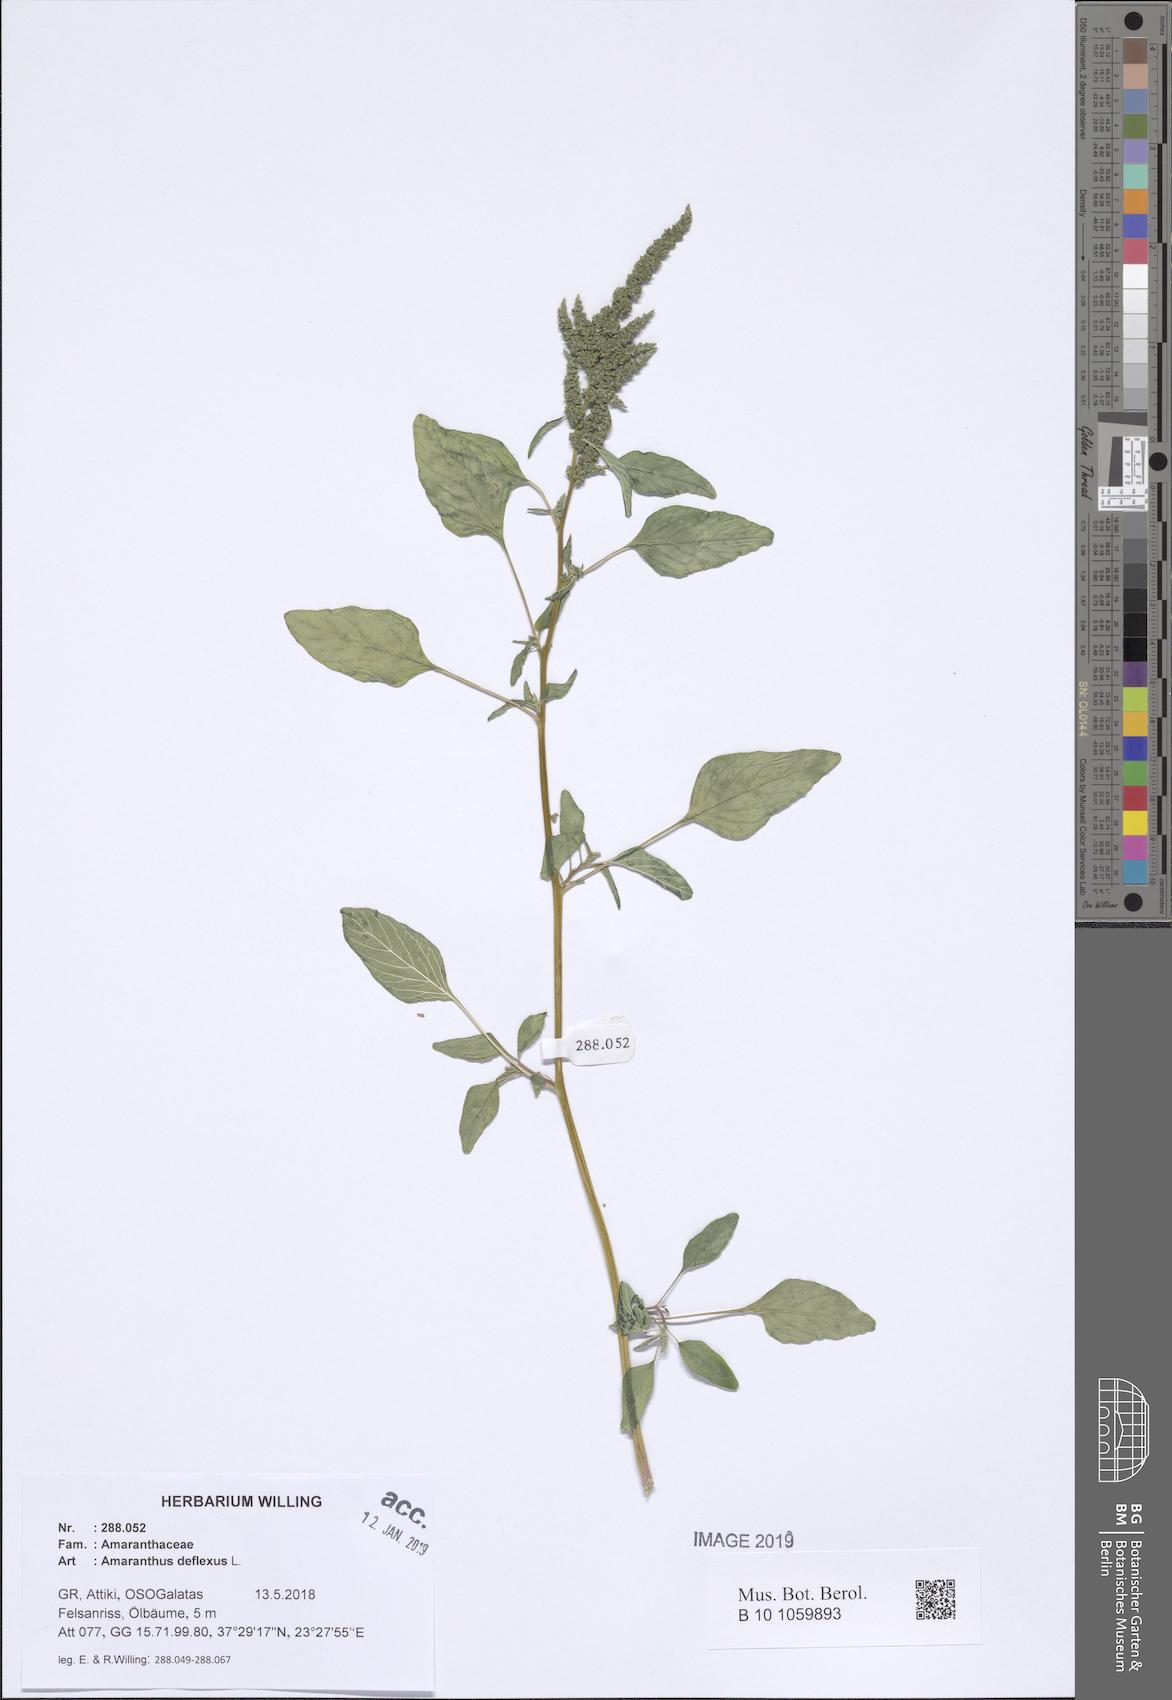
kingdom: Plantae
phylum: Tracheophyta
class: Magnoliopsida
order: Caryophyllales
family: Amaranthaceae
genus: Amaranthus
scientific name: Amaranthus deflexus
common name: Perennial pigweed
